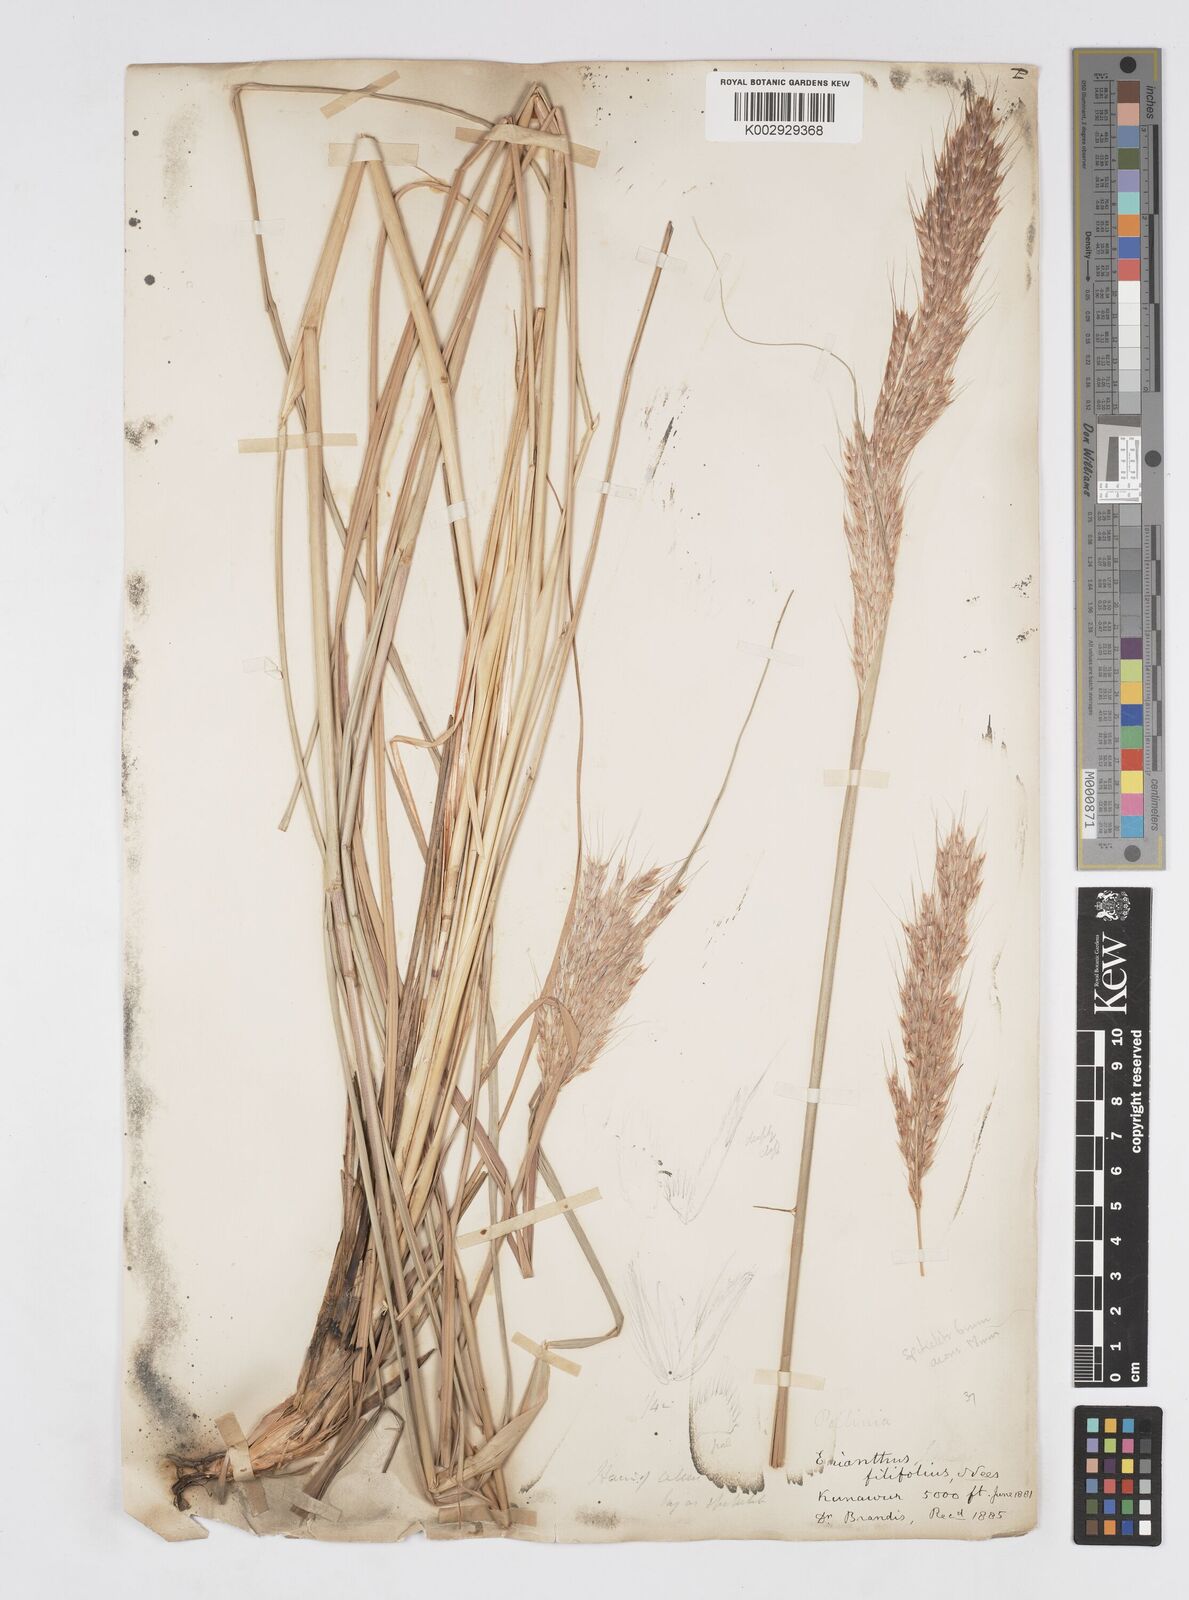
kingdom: Plantae
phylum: Tracheophyta
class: Liliopsida
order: Poales
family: Poaceae
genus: Saccharum
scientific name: Saccharum filifolium
